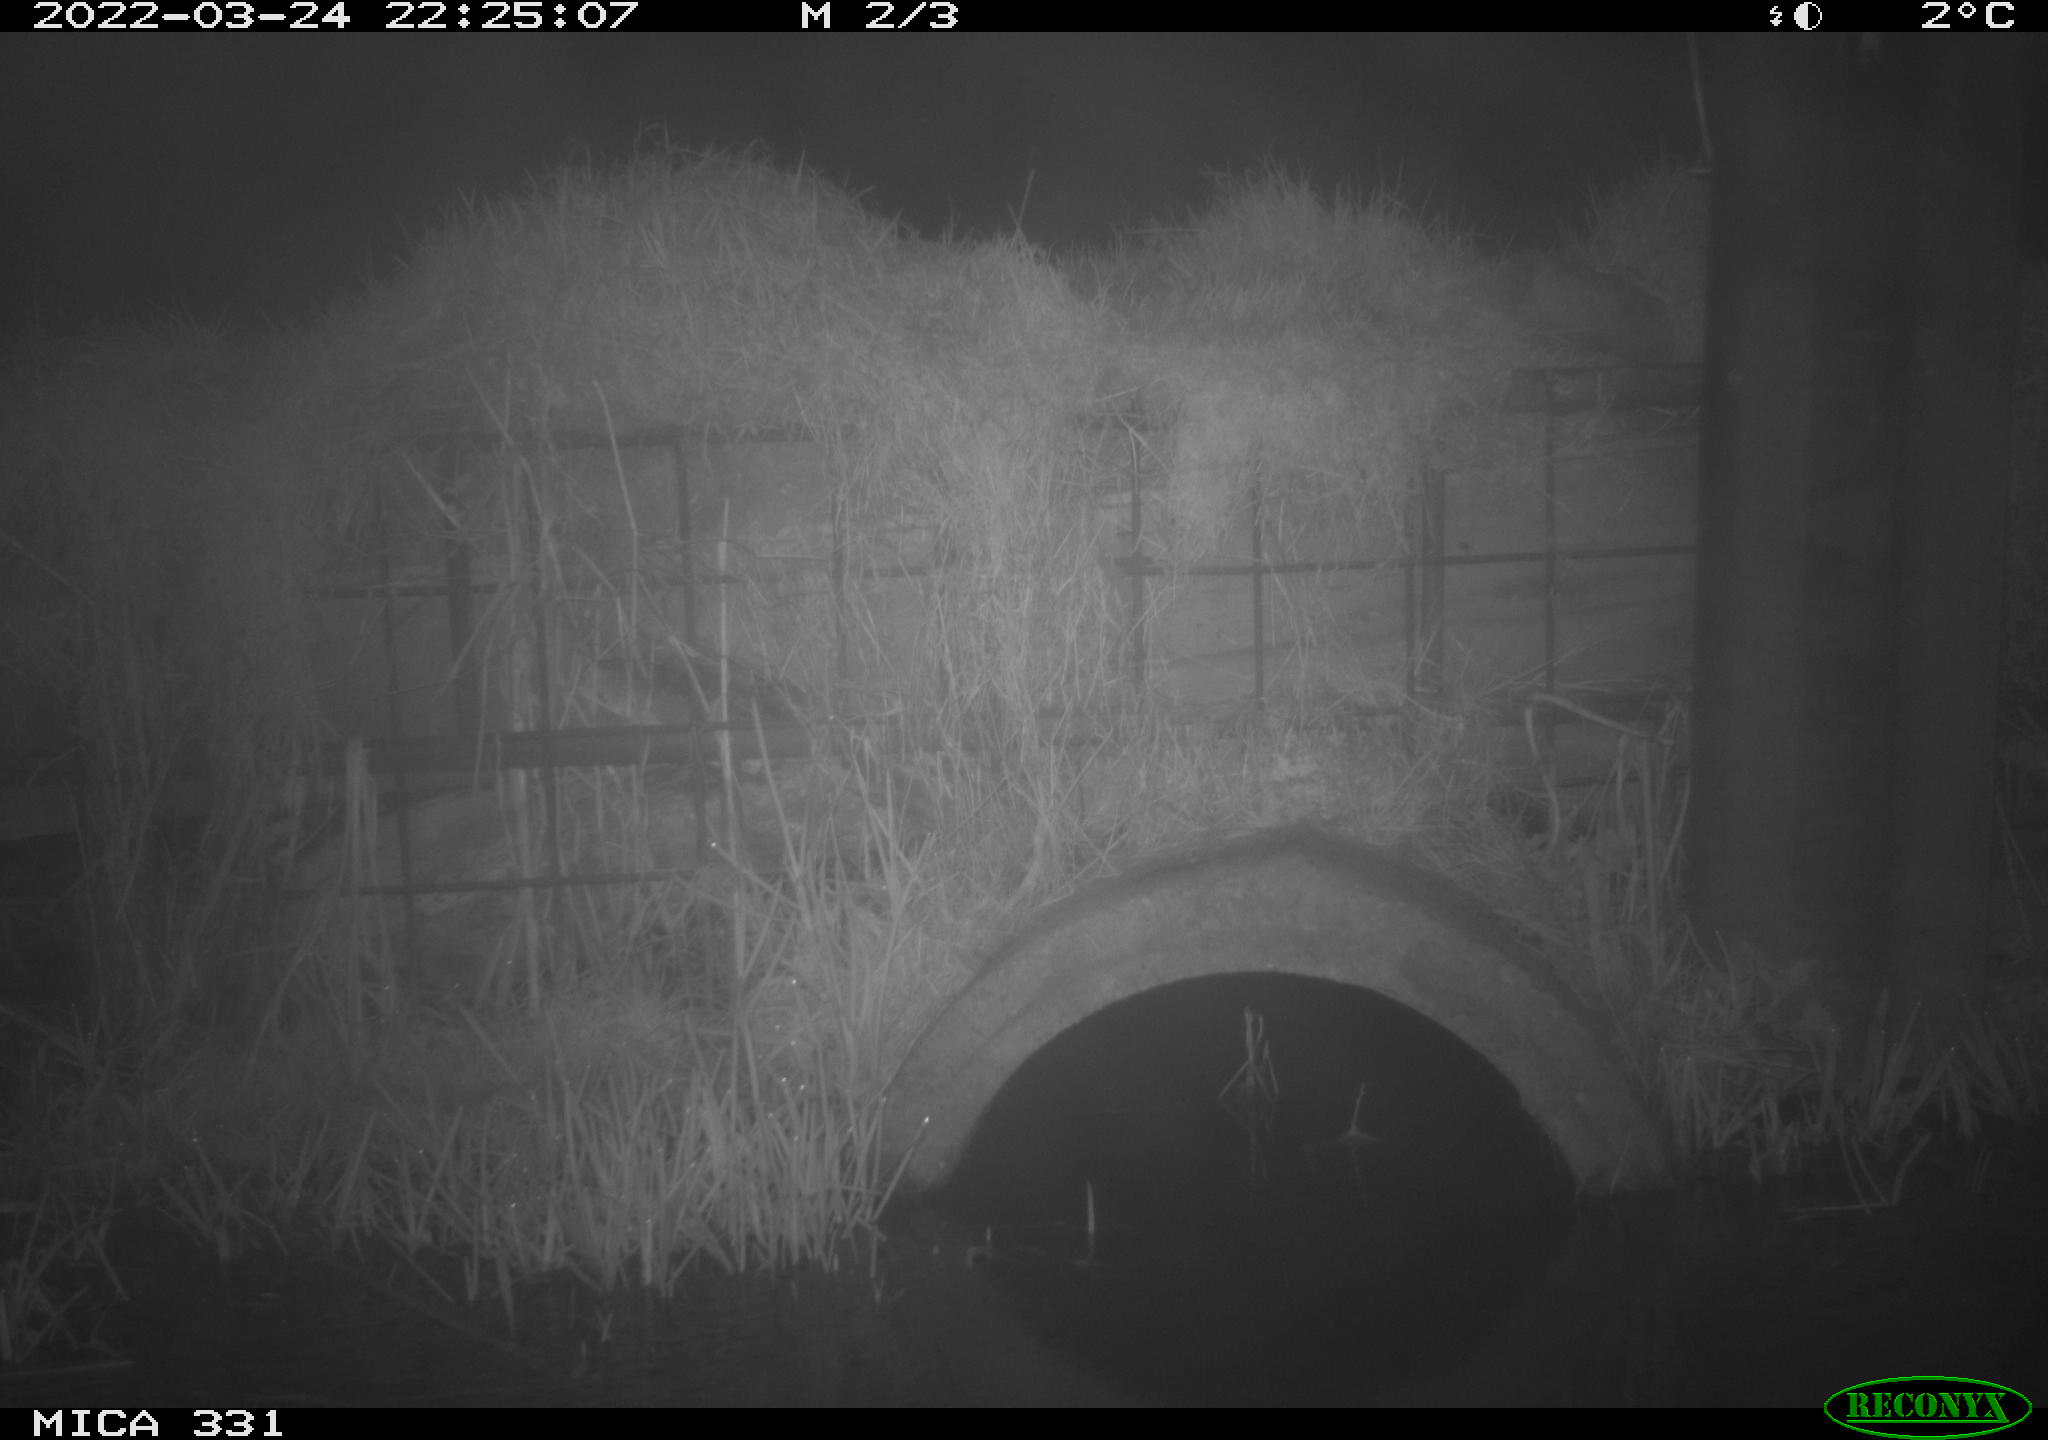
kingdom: Animalia
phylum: Chordata
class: Mammalia
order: Rodentia
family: Muridae
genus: Rattus
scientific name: Rattus norvegicus
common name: Brown rat
